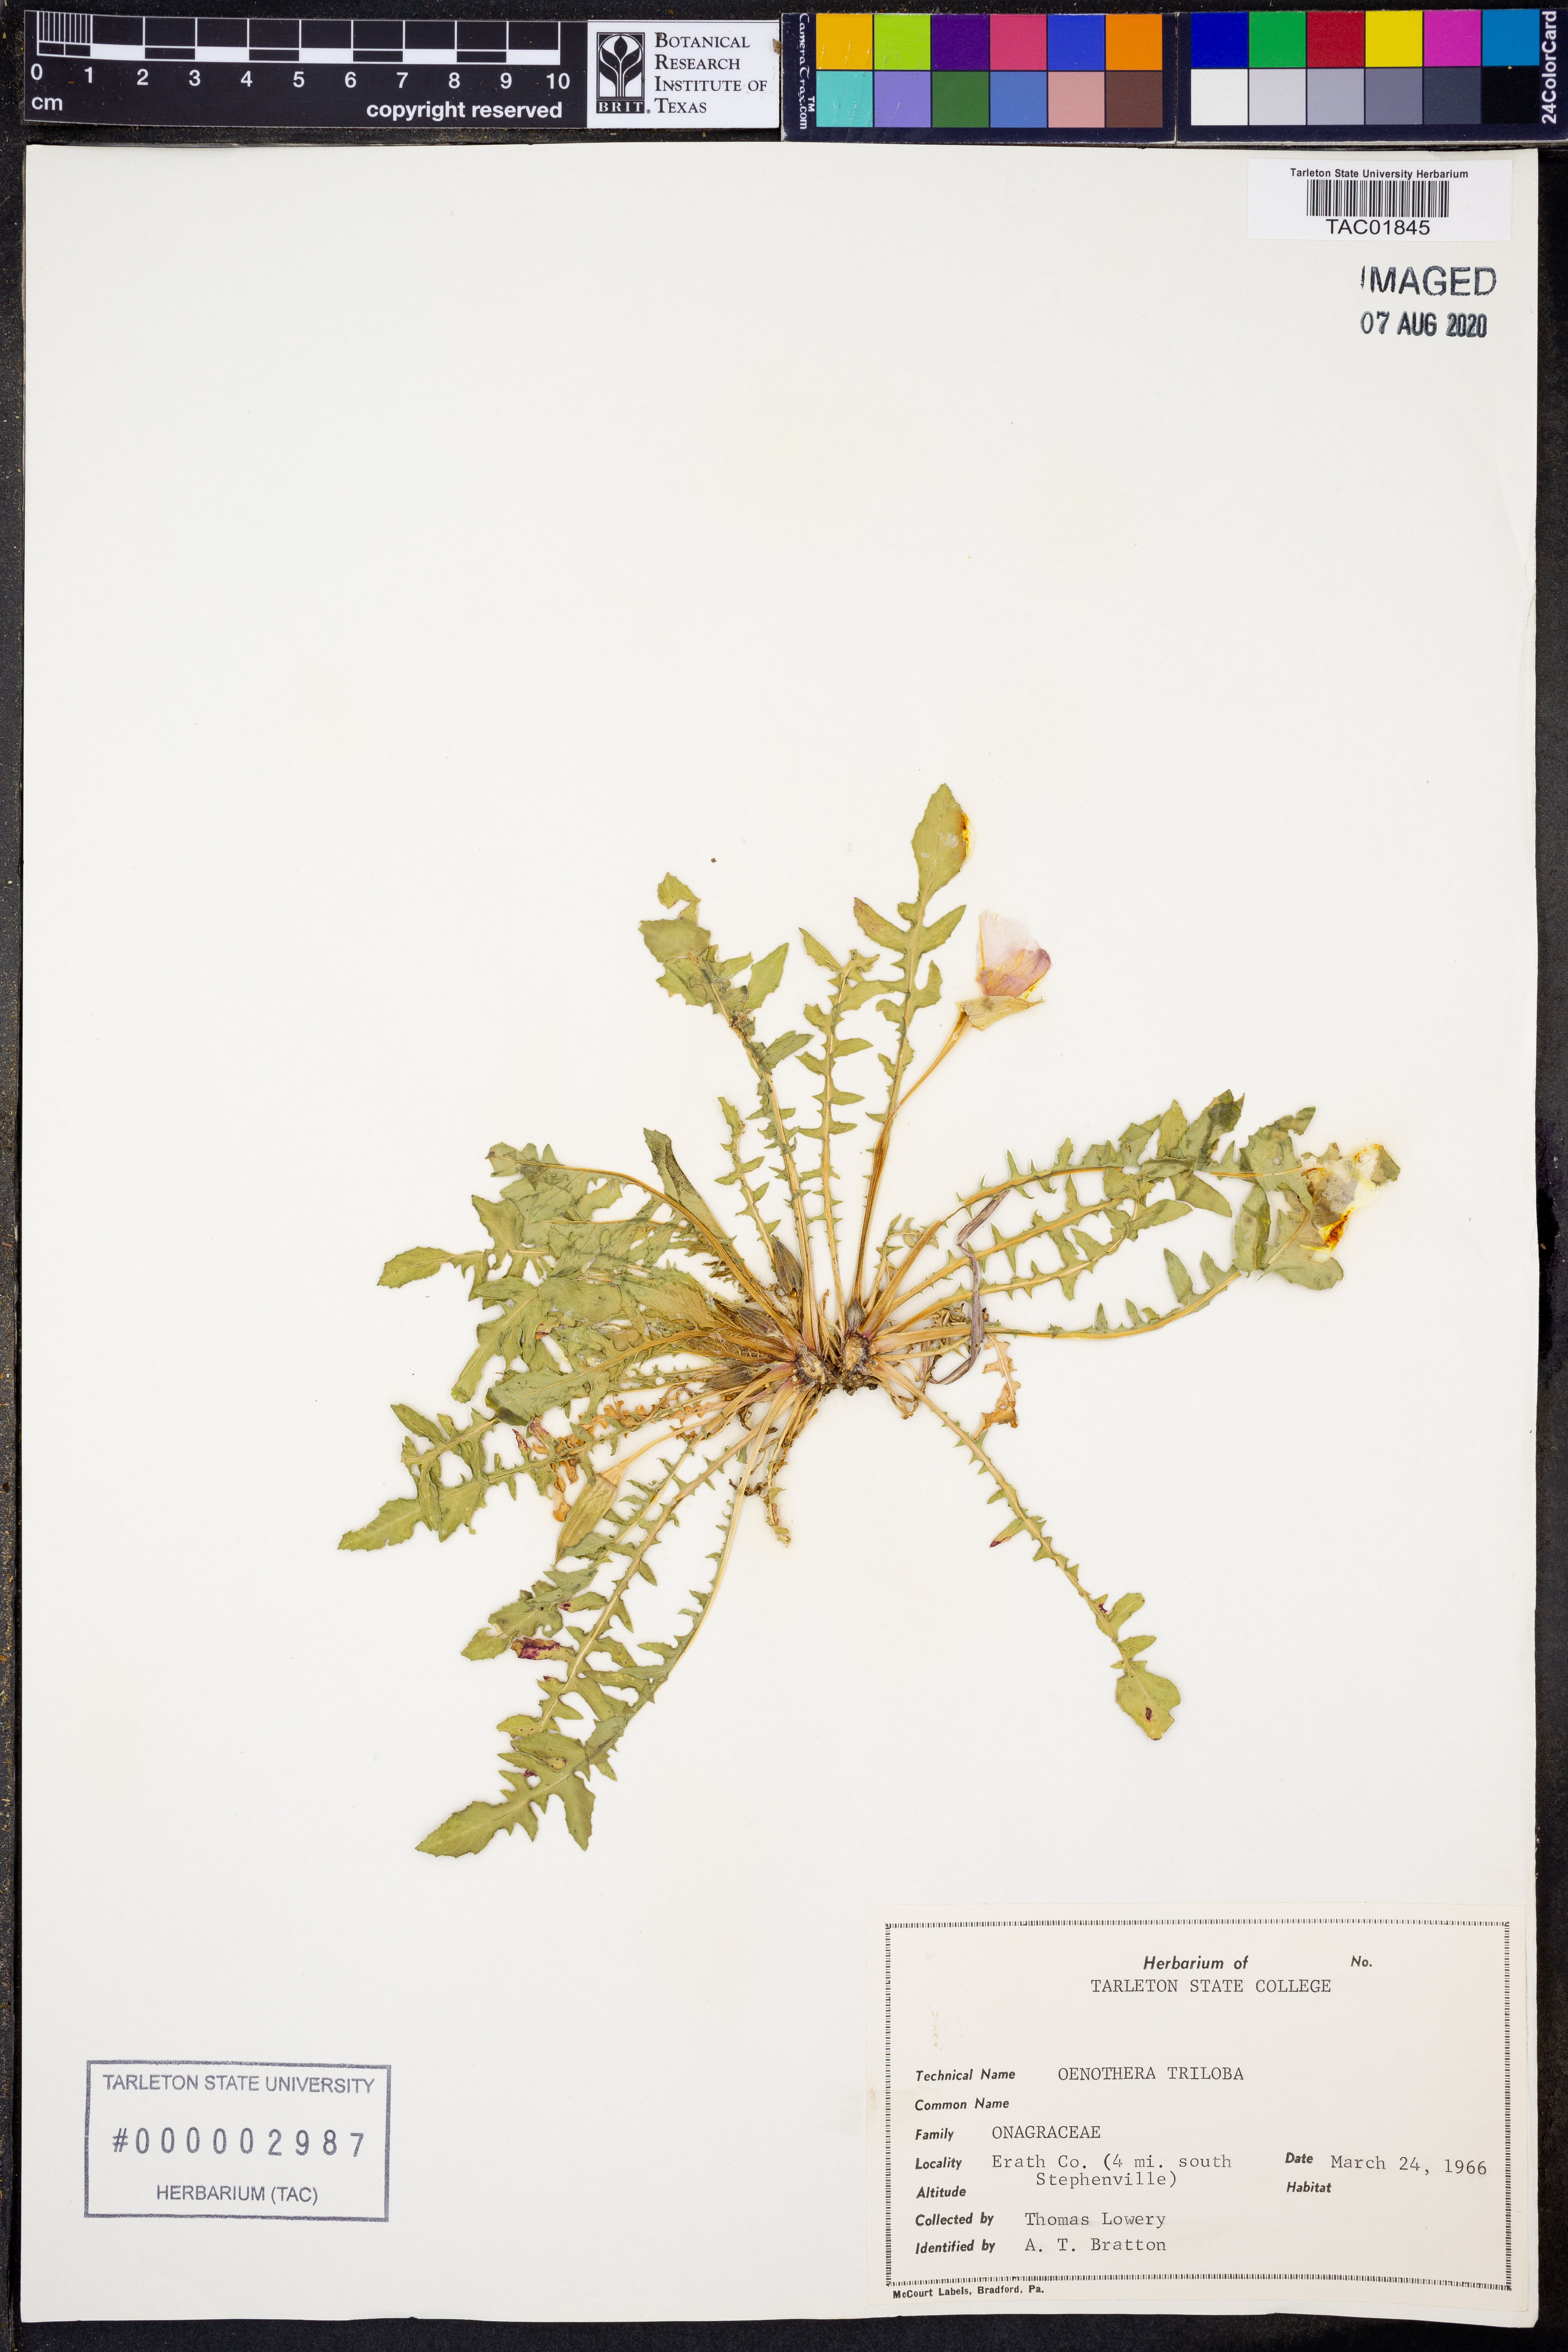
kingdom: Plantae
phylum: Tracheophyta
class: Magnoliopsida
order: Myrtales
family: Onagraceae
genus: Oenothera
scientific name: Oenothera triloba
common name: Sessile evening-primrose
